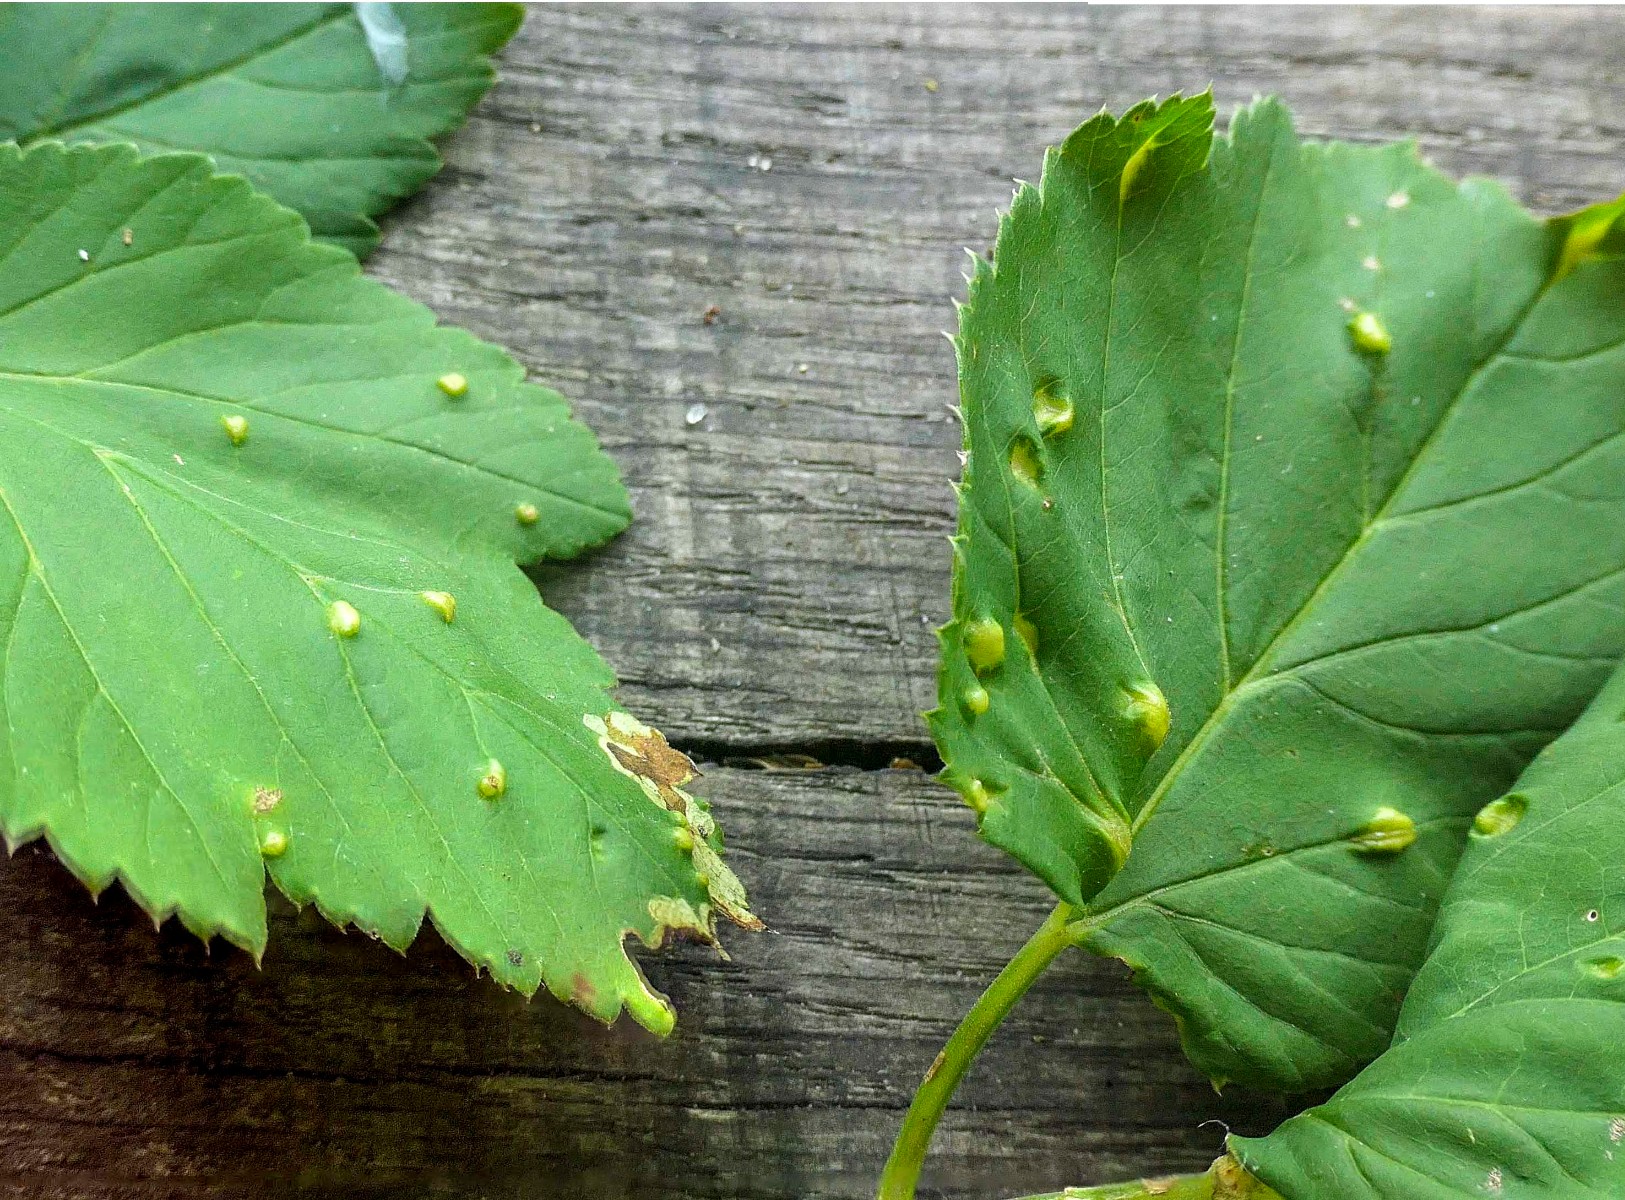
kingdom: Fungi
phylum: Ascomycota
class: Taphrinomycetes
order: Taphrinales
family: Taphrinaceae
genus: Protomyces
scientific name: Protomyces macrosporus
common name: skvalderkål-vablesæk
